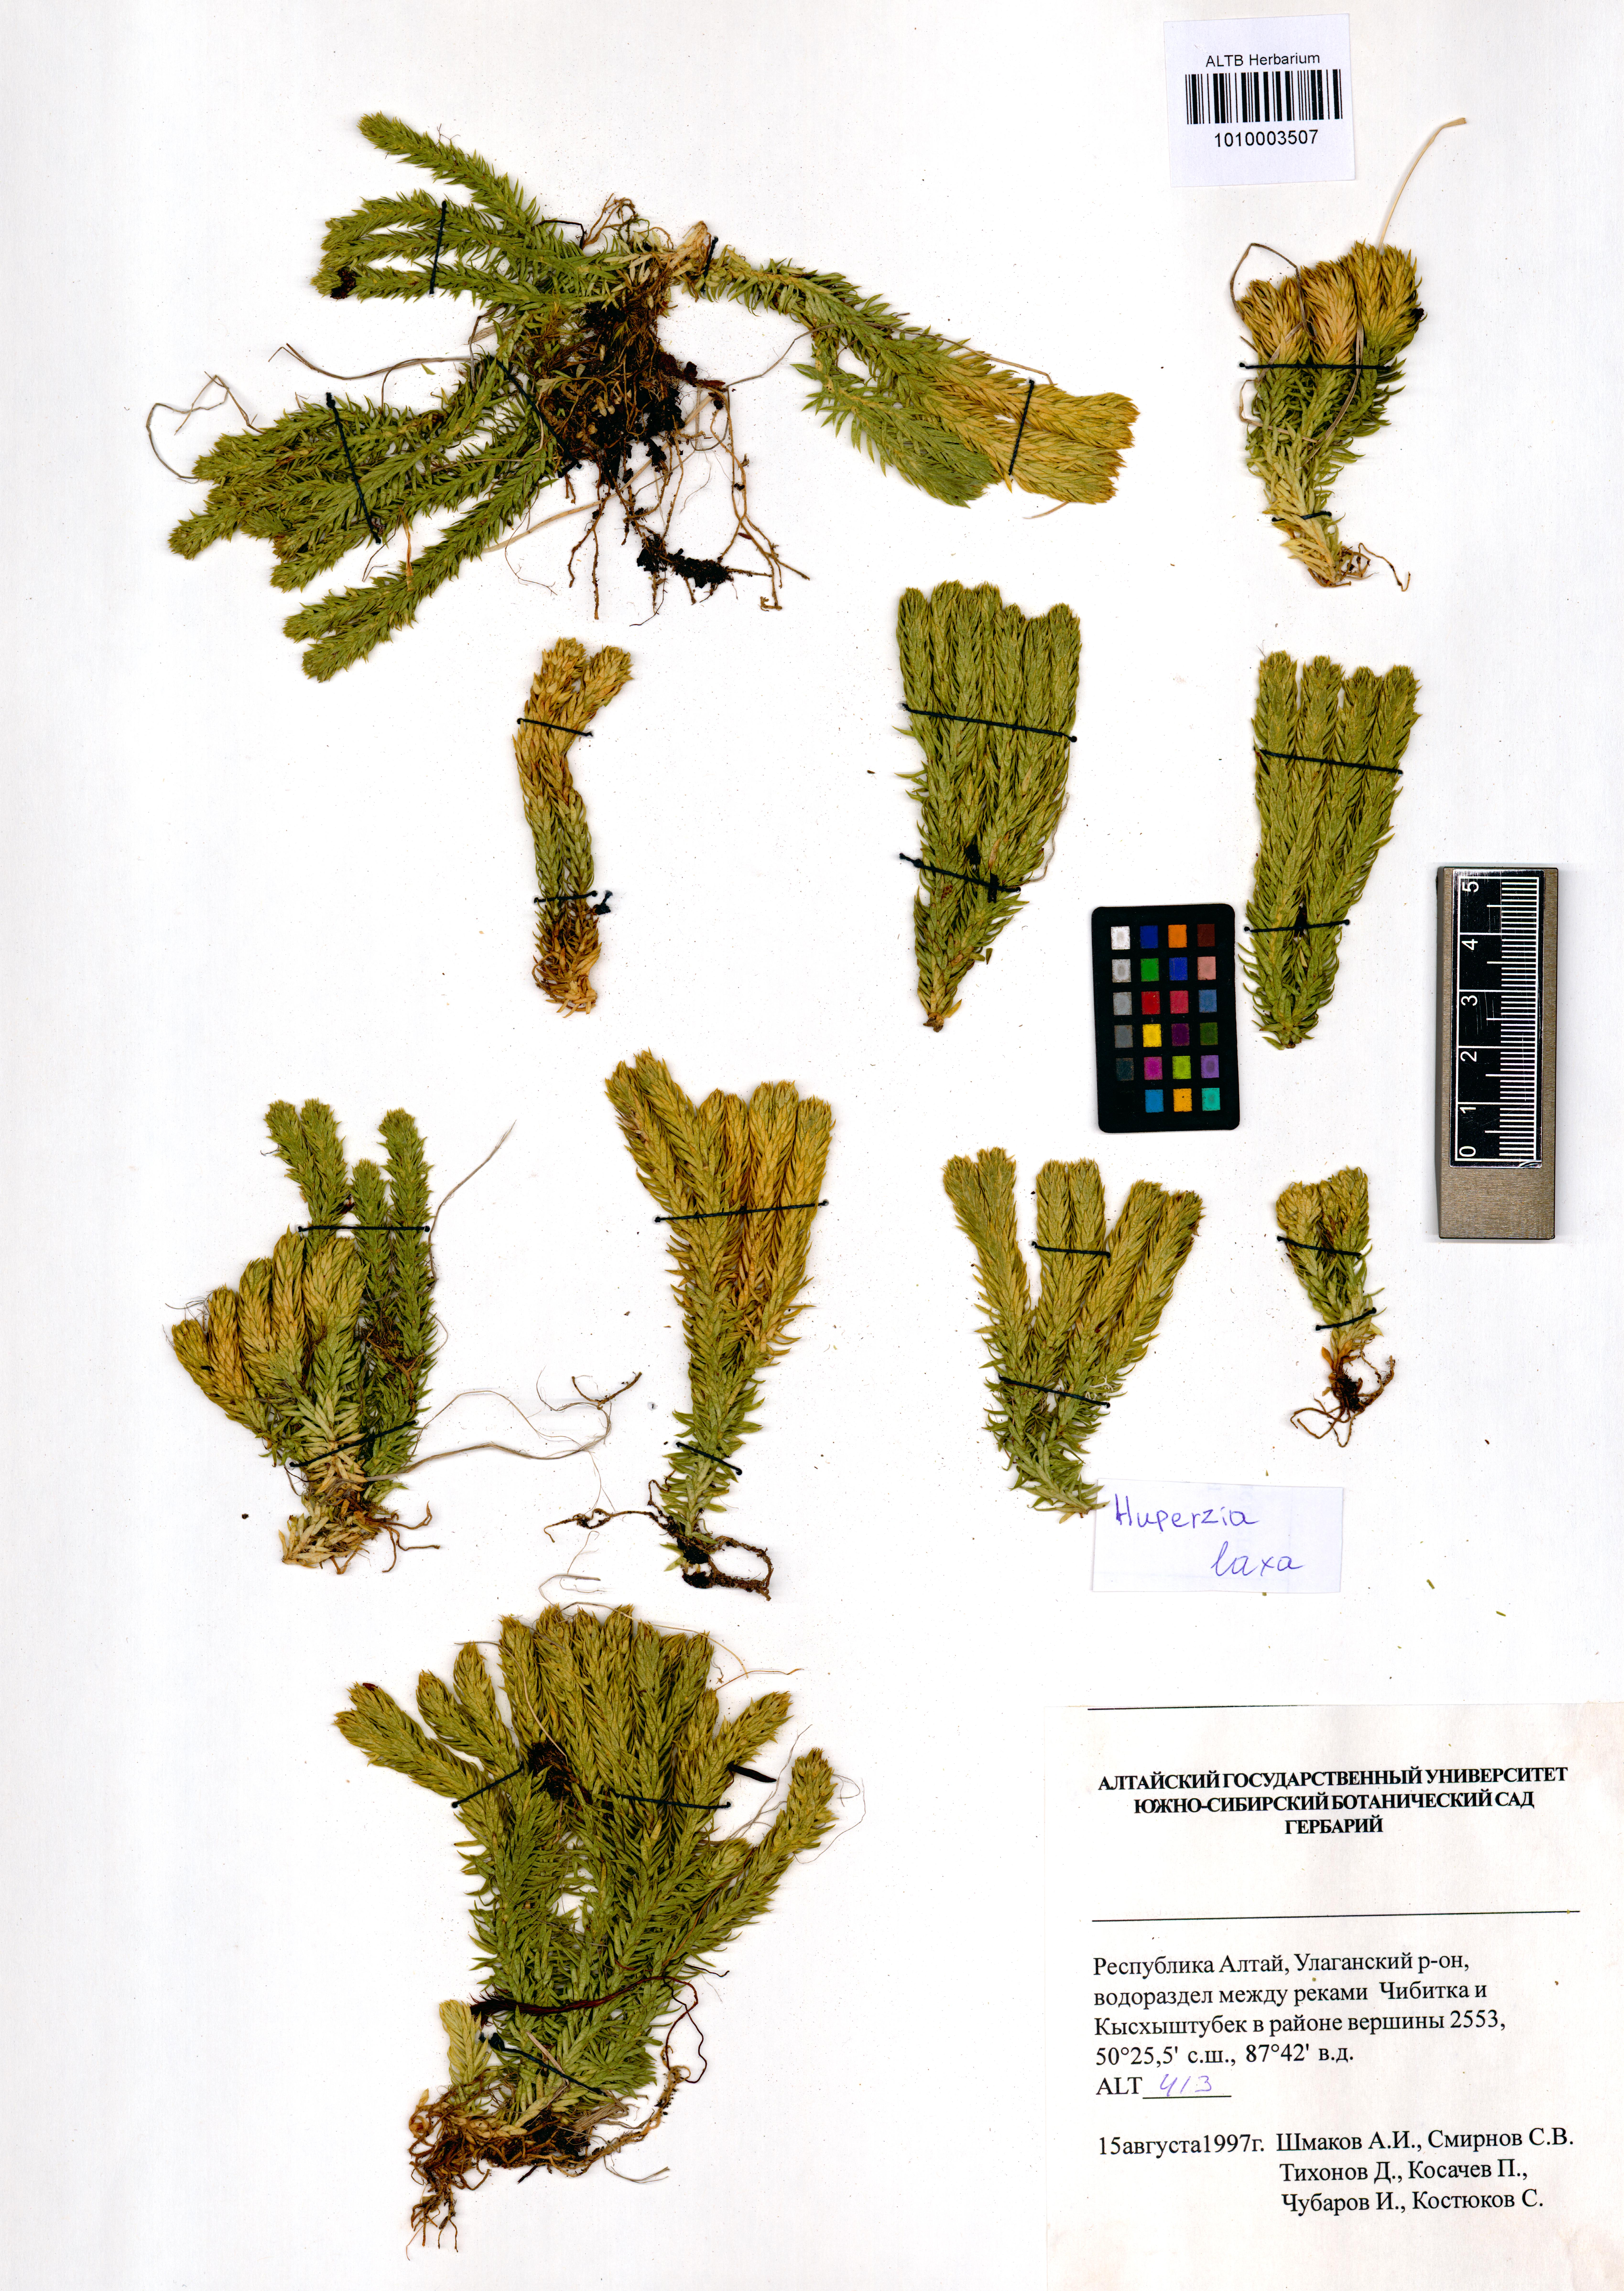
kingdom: Plantae
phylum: Tracheophyta
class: Lycopodiopsida
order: Lycopodiales
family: Lycopodiaceae
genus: Phlegmariurus
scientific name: Phlegmariurus carinatus
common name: Keeled tassel-fern
